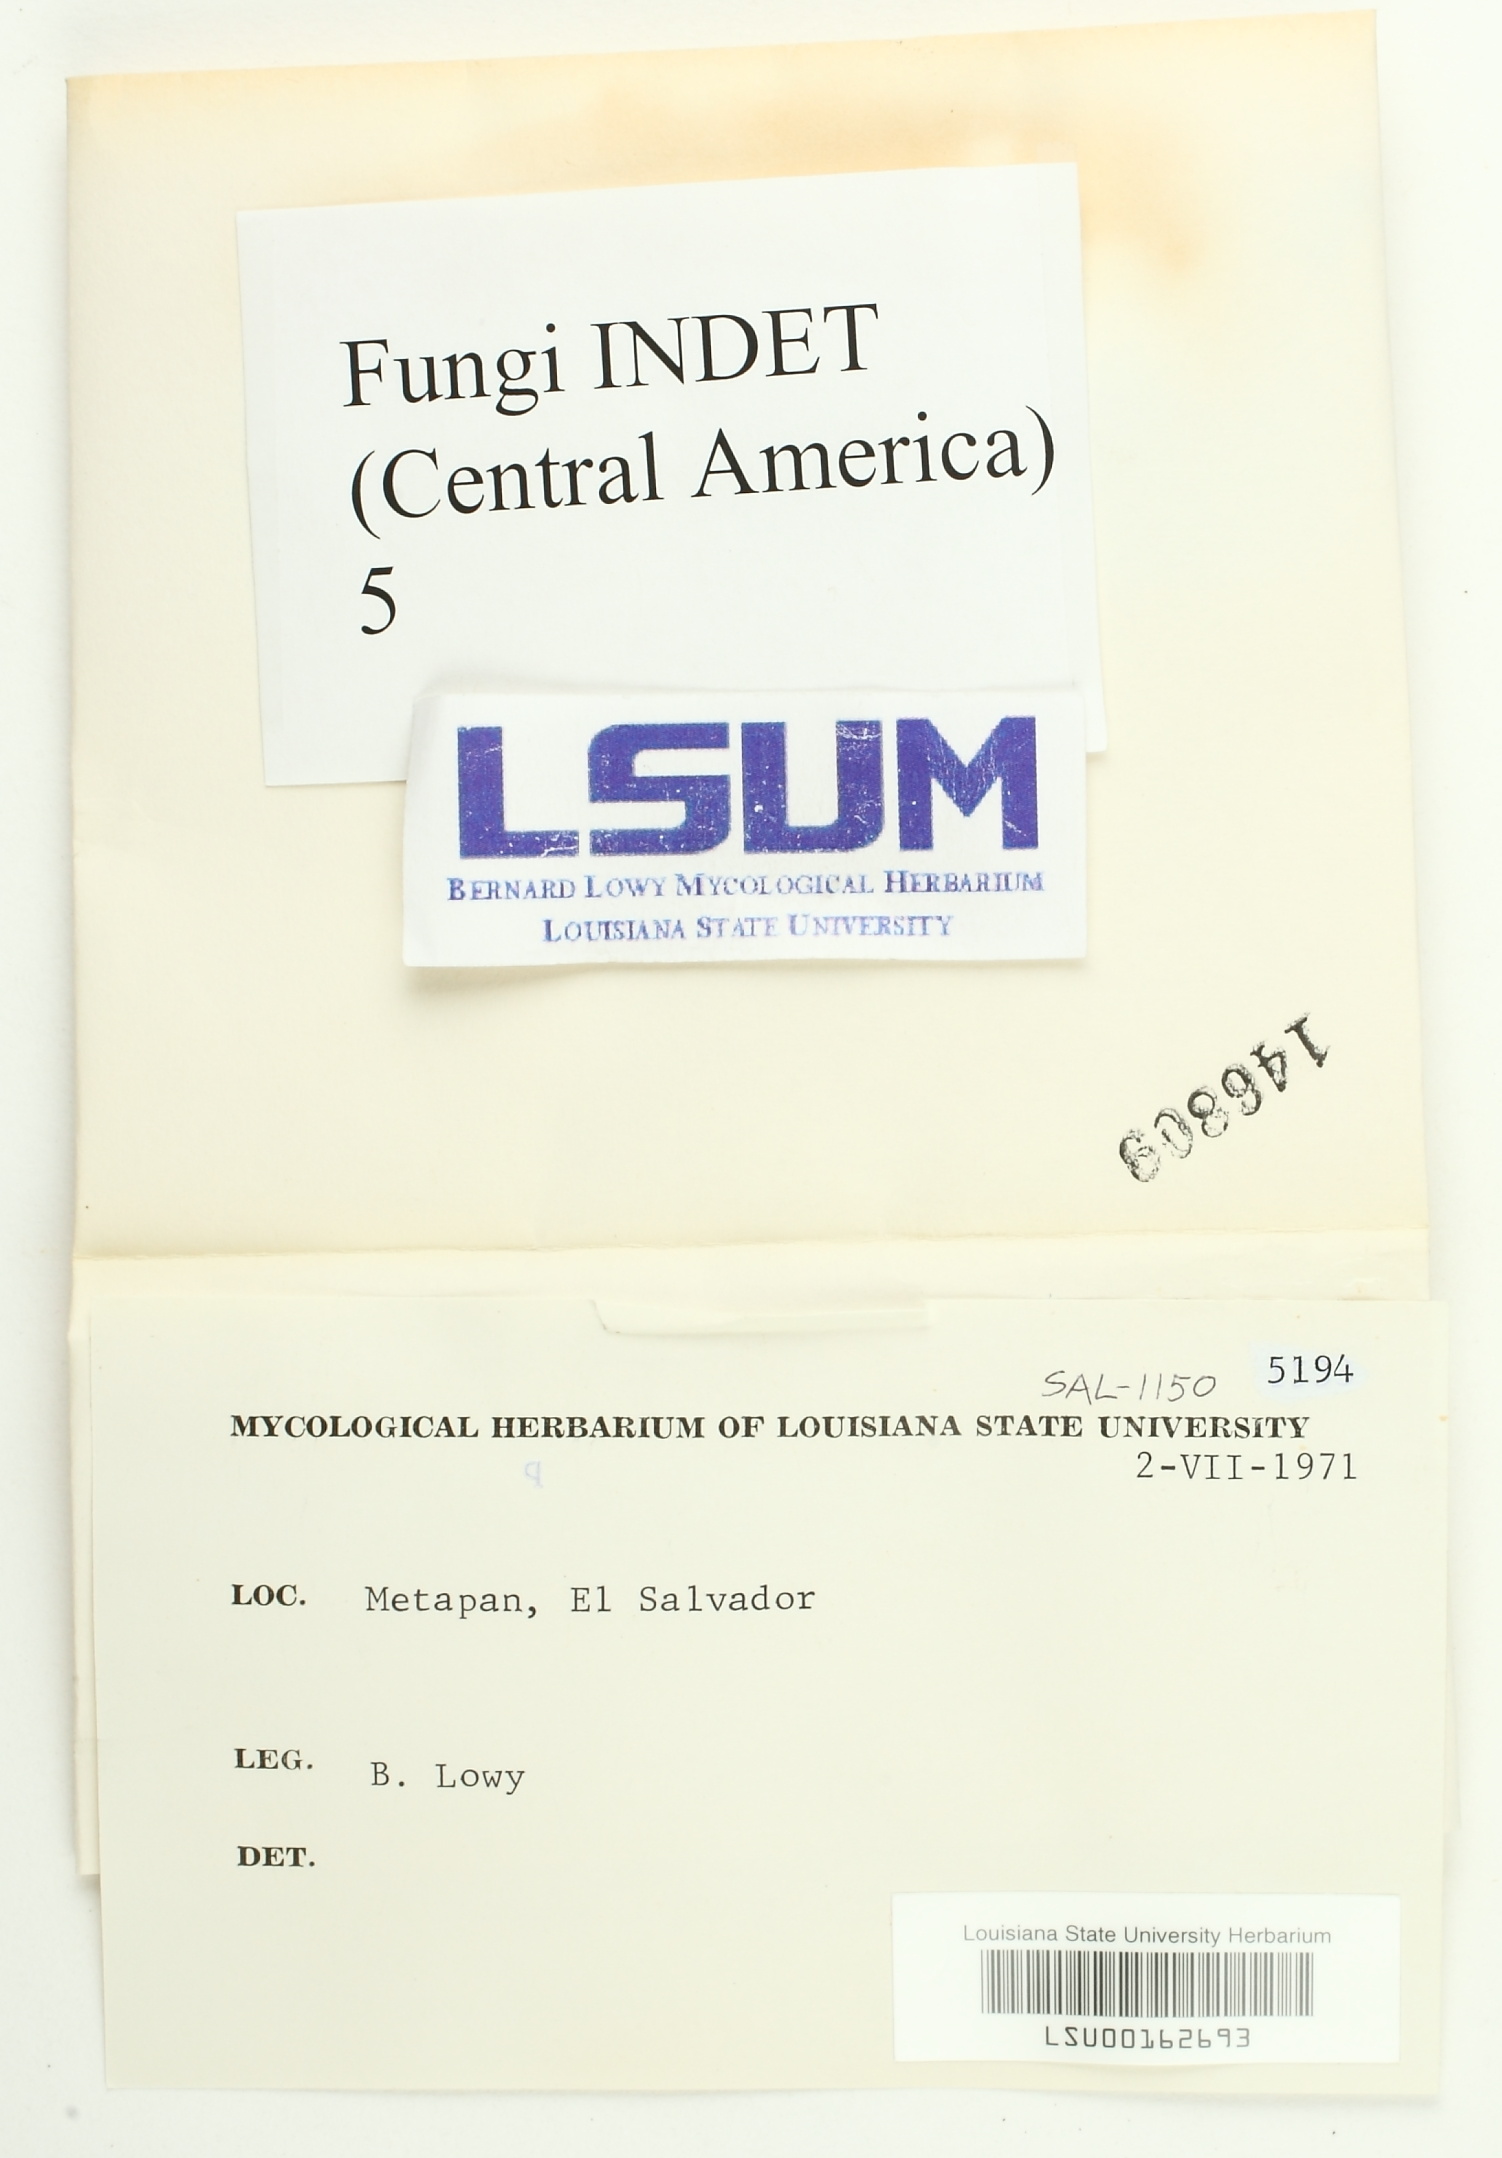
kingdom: Fungi
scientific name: Fungi
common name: Fungi
